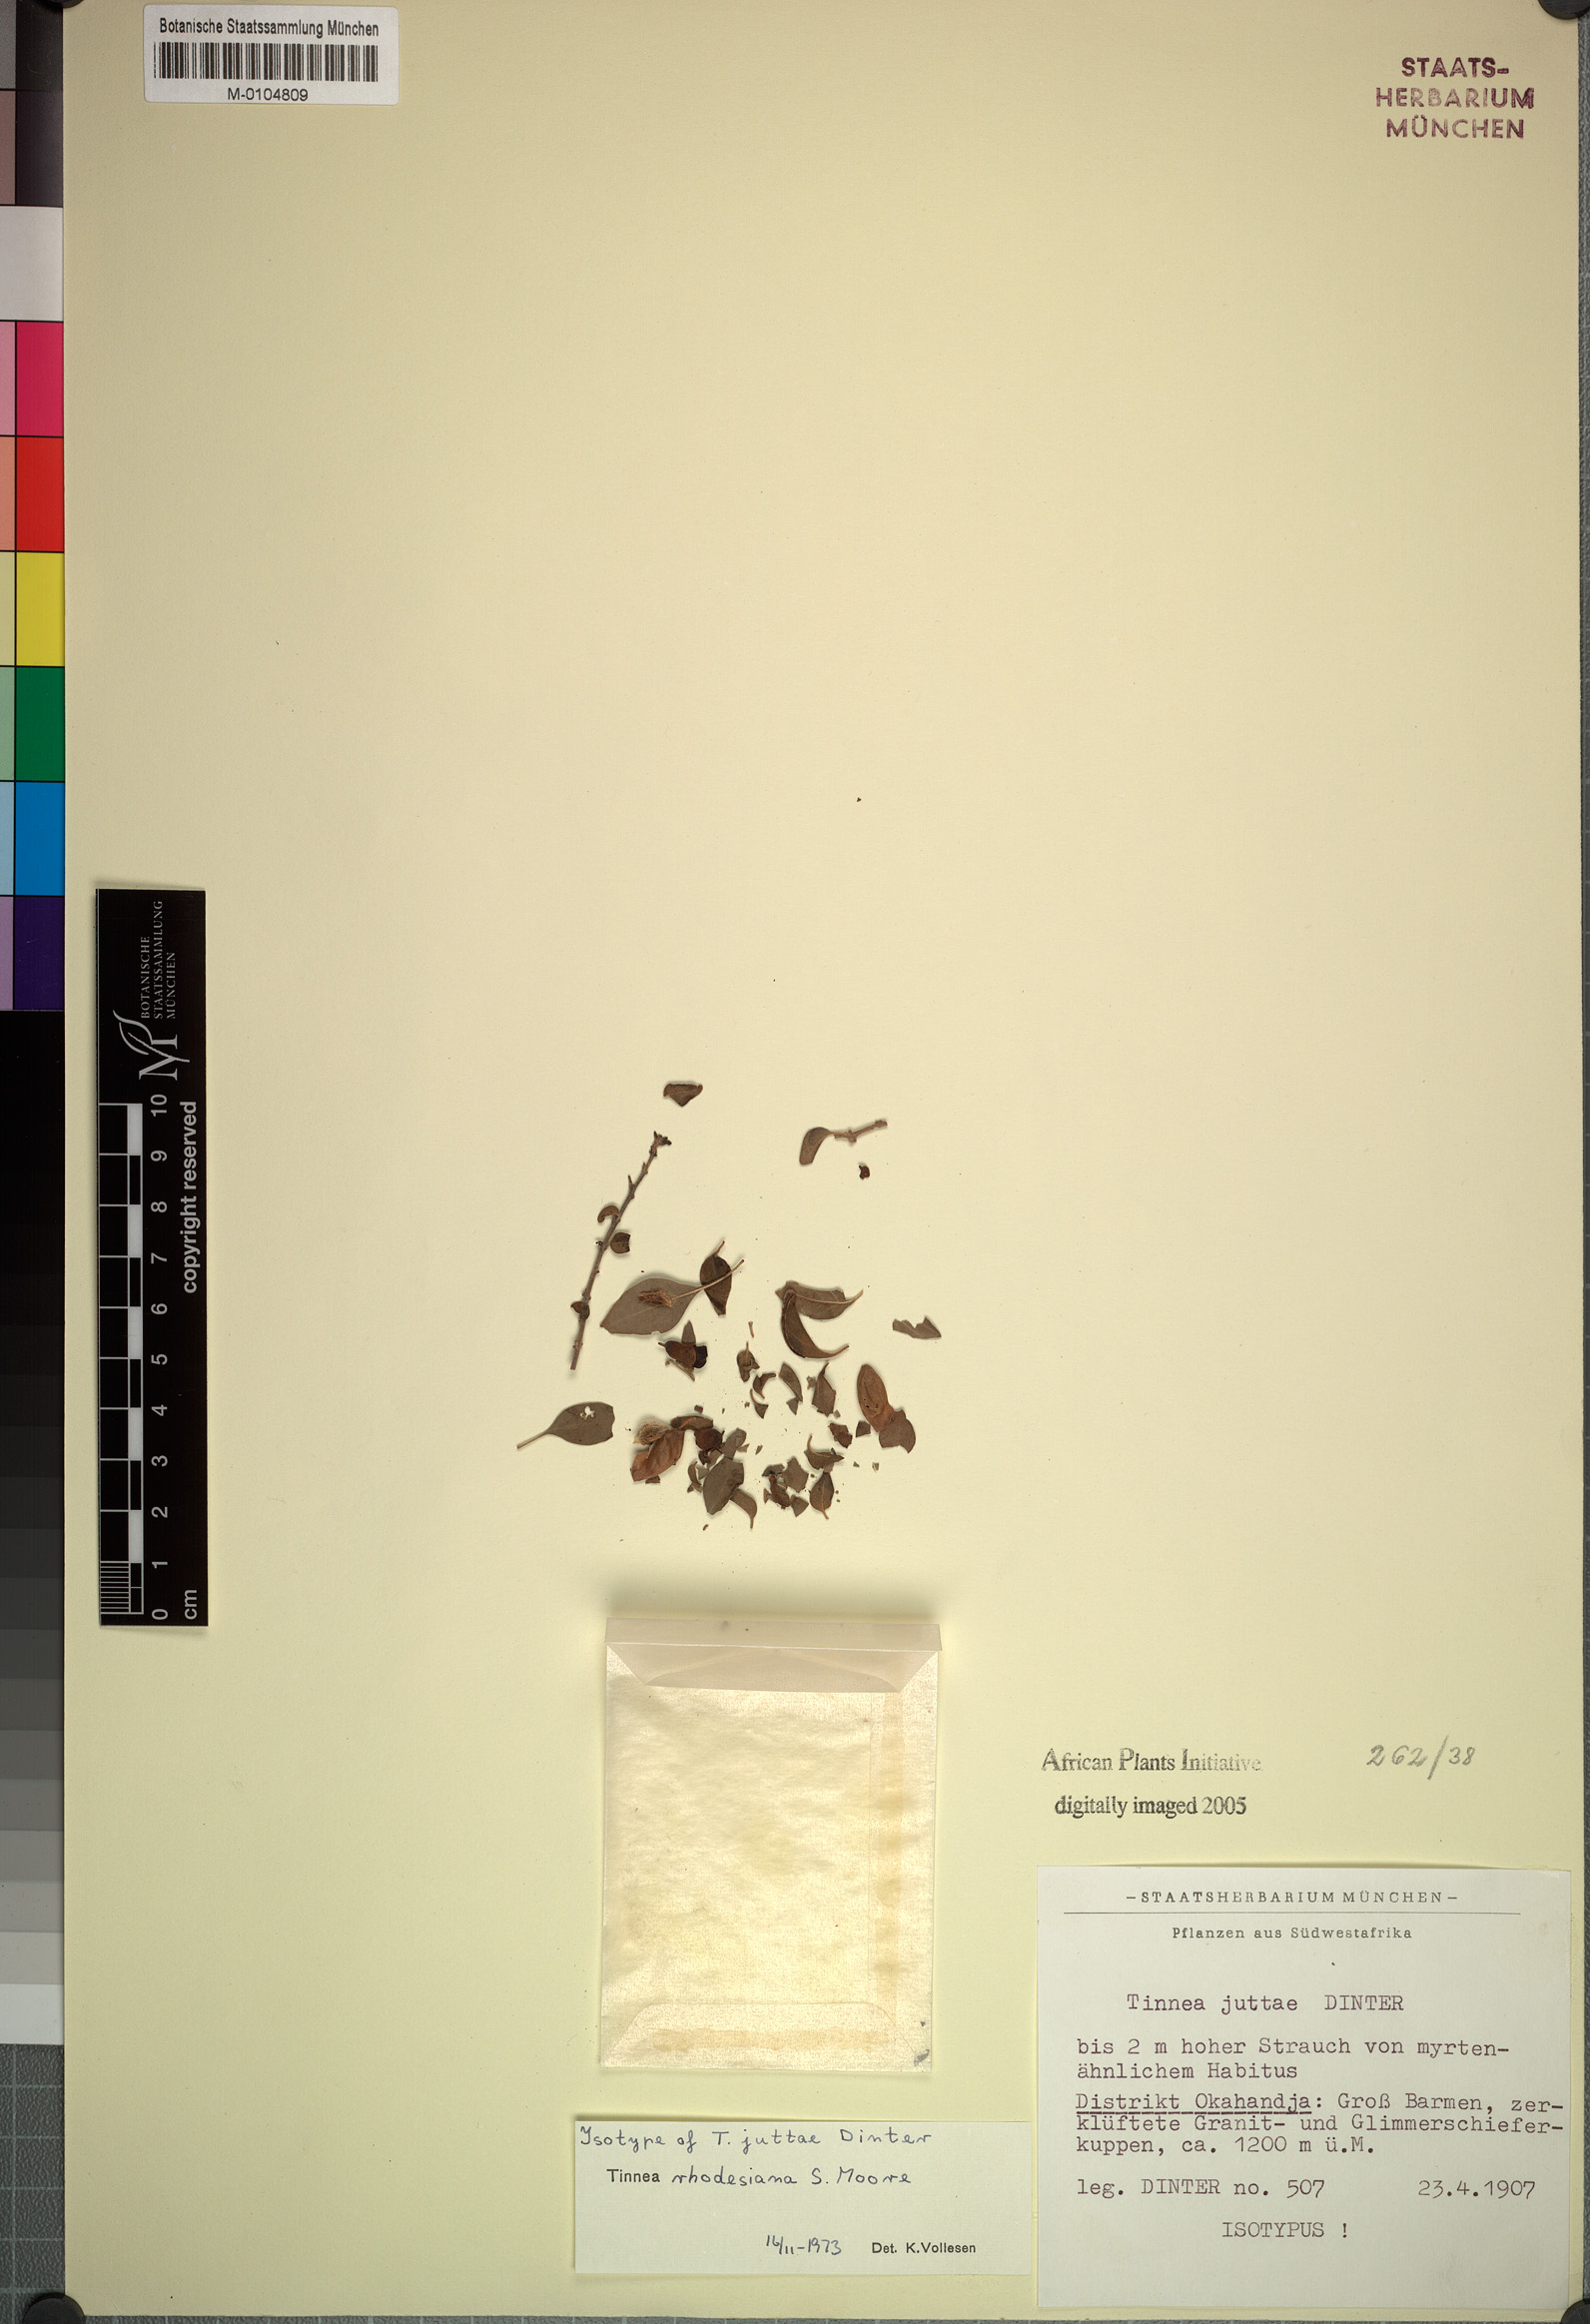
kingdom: Plantae
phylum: Tracheophyta
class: Magnoliopsida
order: Lamiales
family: Lamiaceae
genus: Tinnea
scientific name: Tinnea rhodesiana
